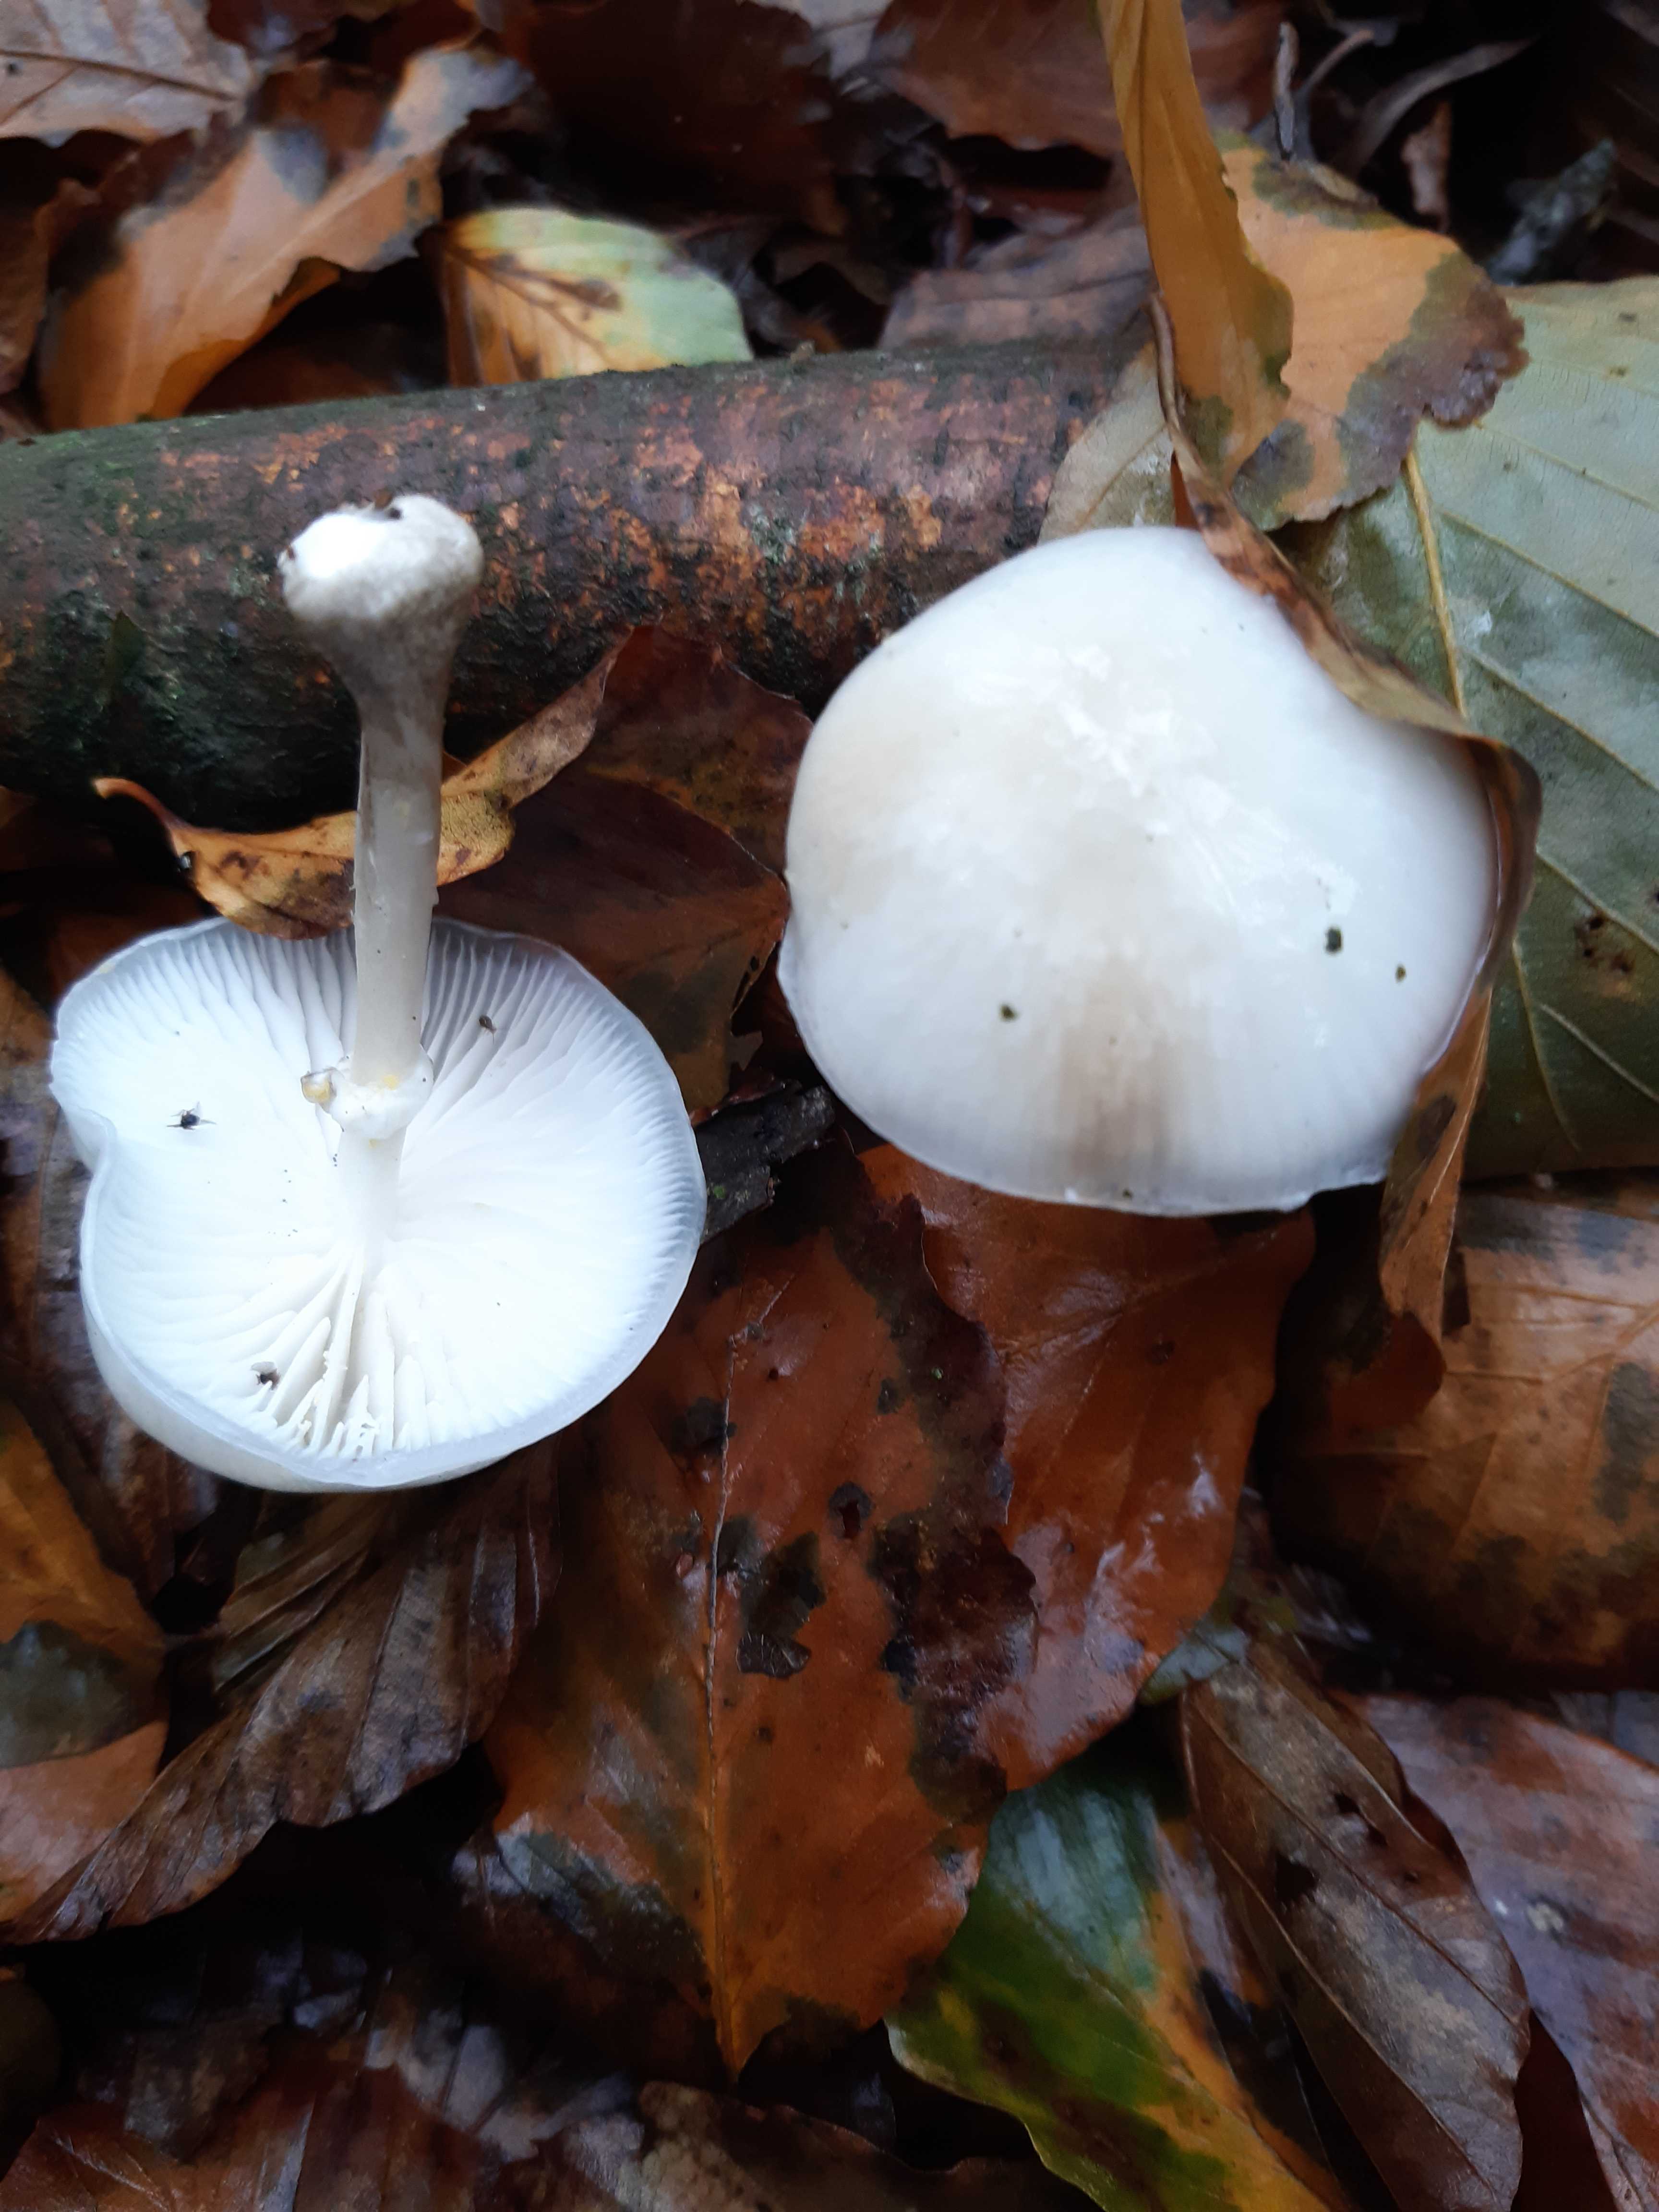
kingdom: Fungi
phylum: Basidiomycota
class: Agaricomycetes
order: Agaricales
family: Physalacriaceae
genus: Mucidula
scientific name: Mucidula mucida
